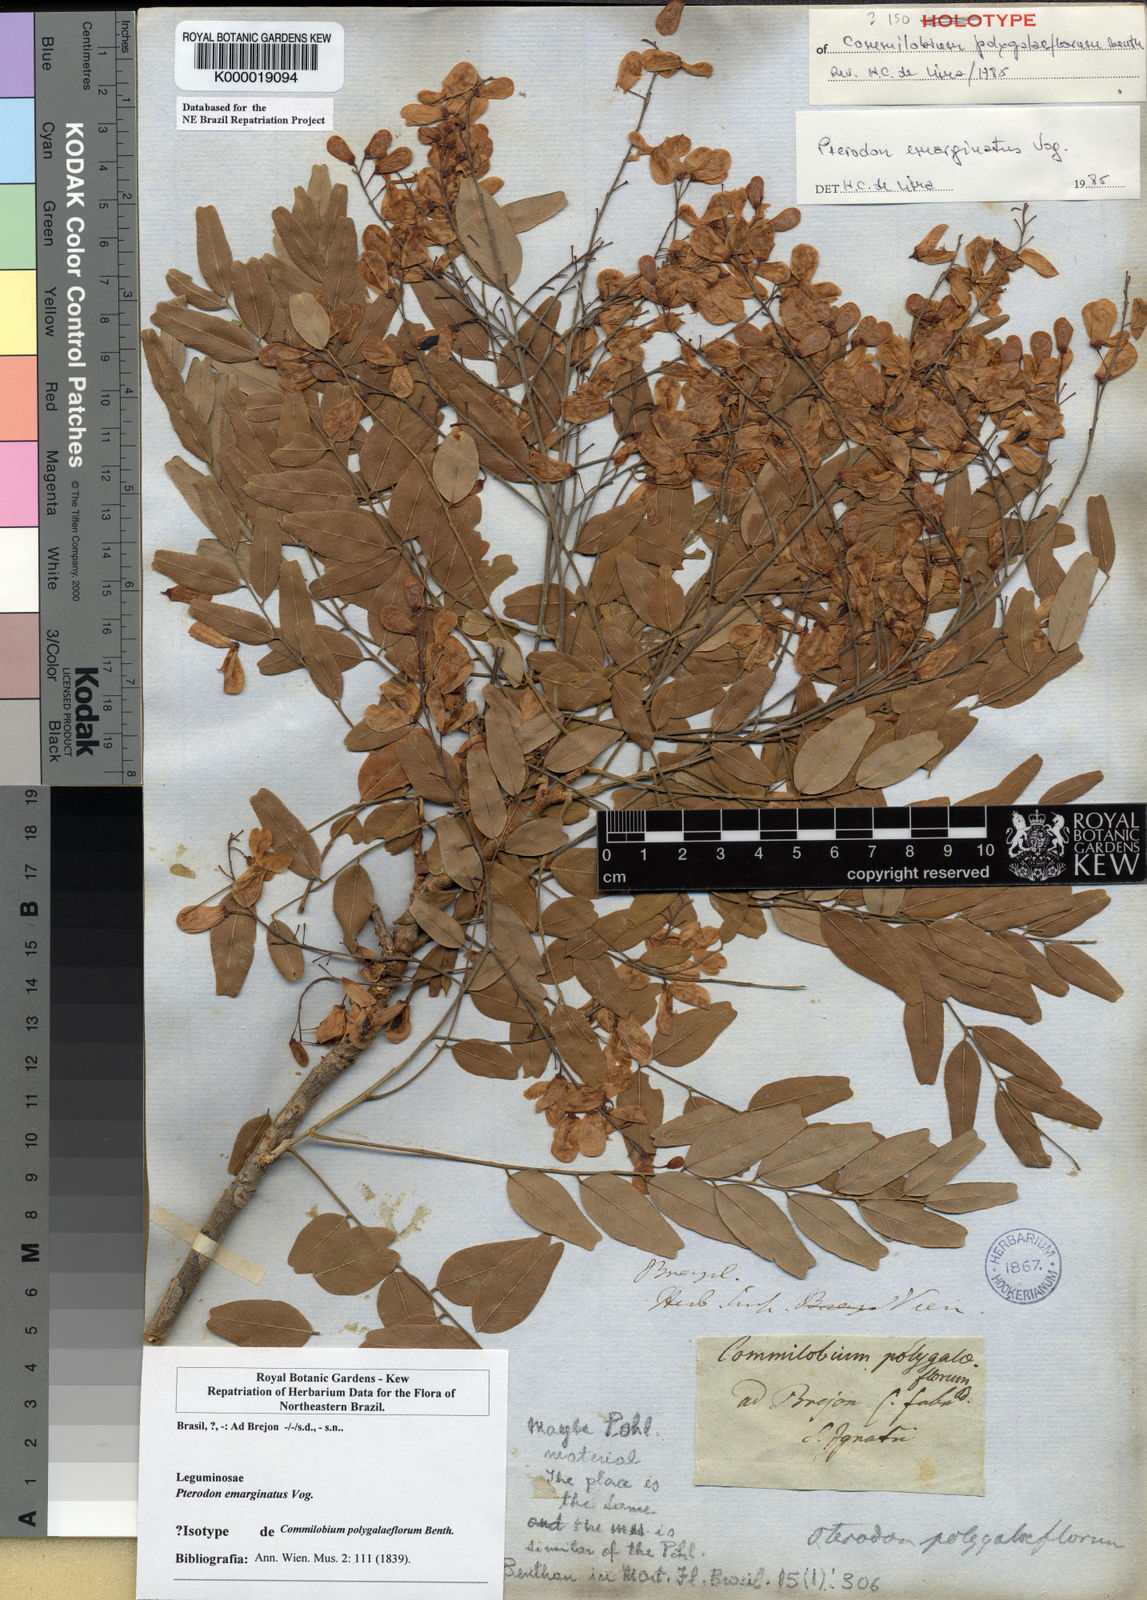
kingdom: Plantae
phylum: Tracheophyta
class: Magnoliopsida
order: Fabales
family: Fabaceae
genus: Pterodon
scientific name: Pterodon emarginatus
